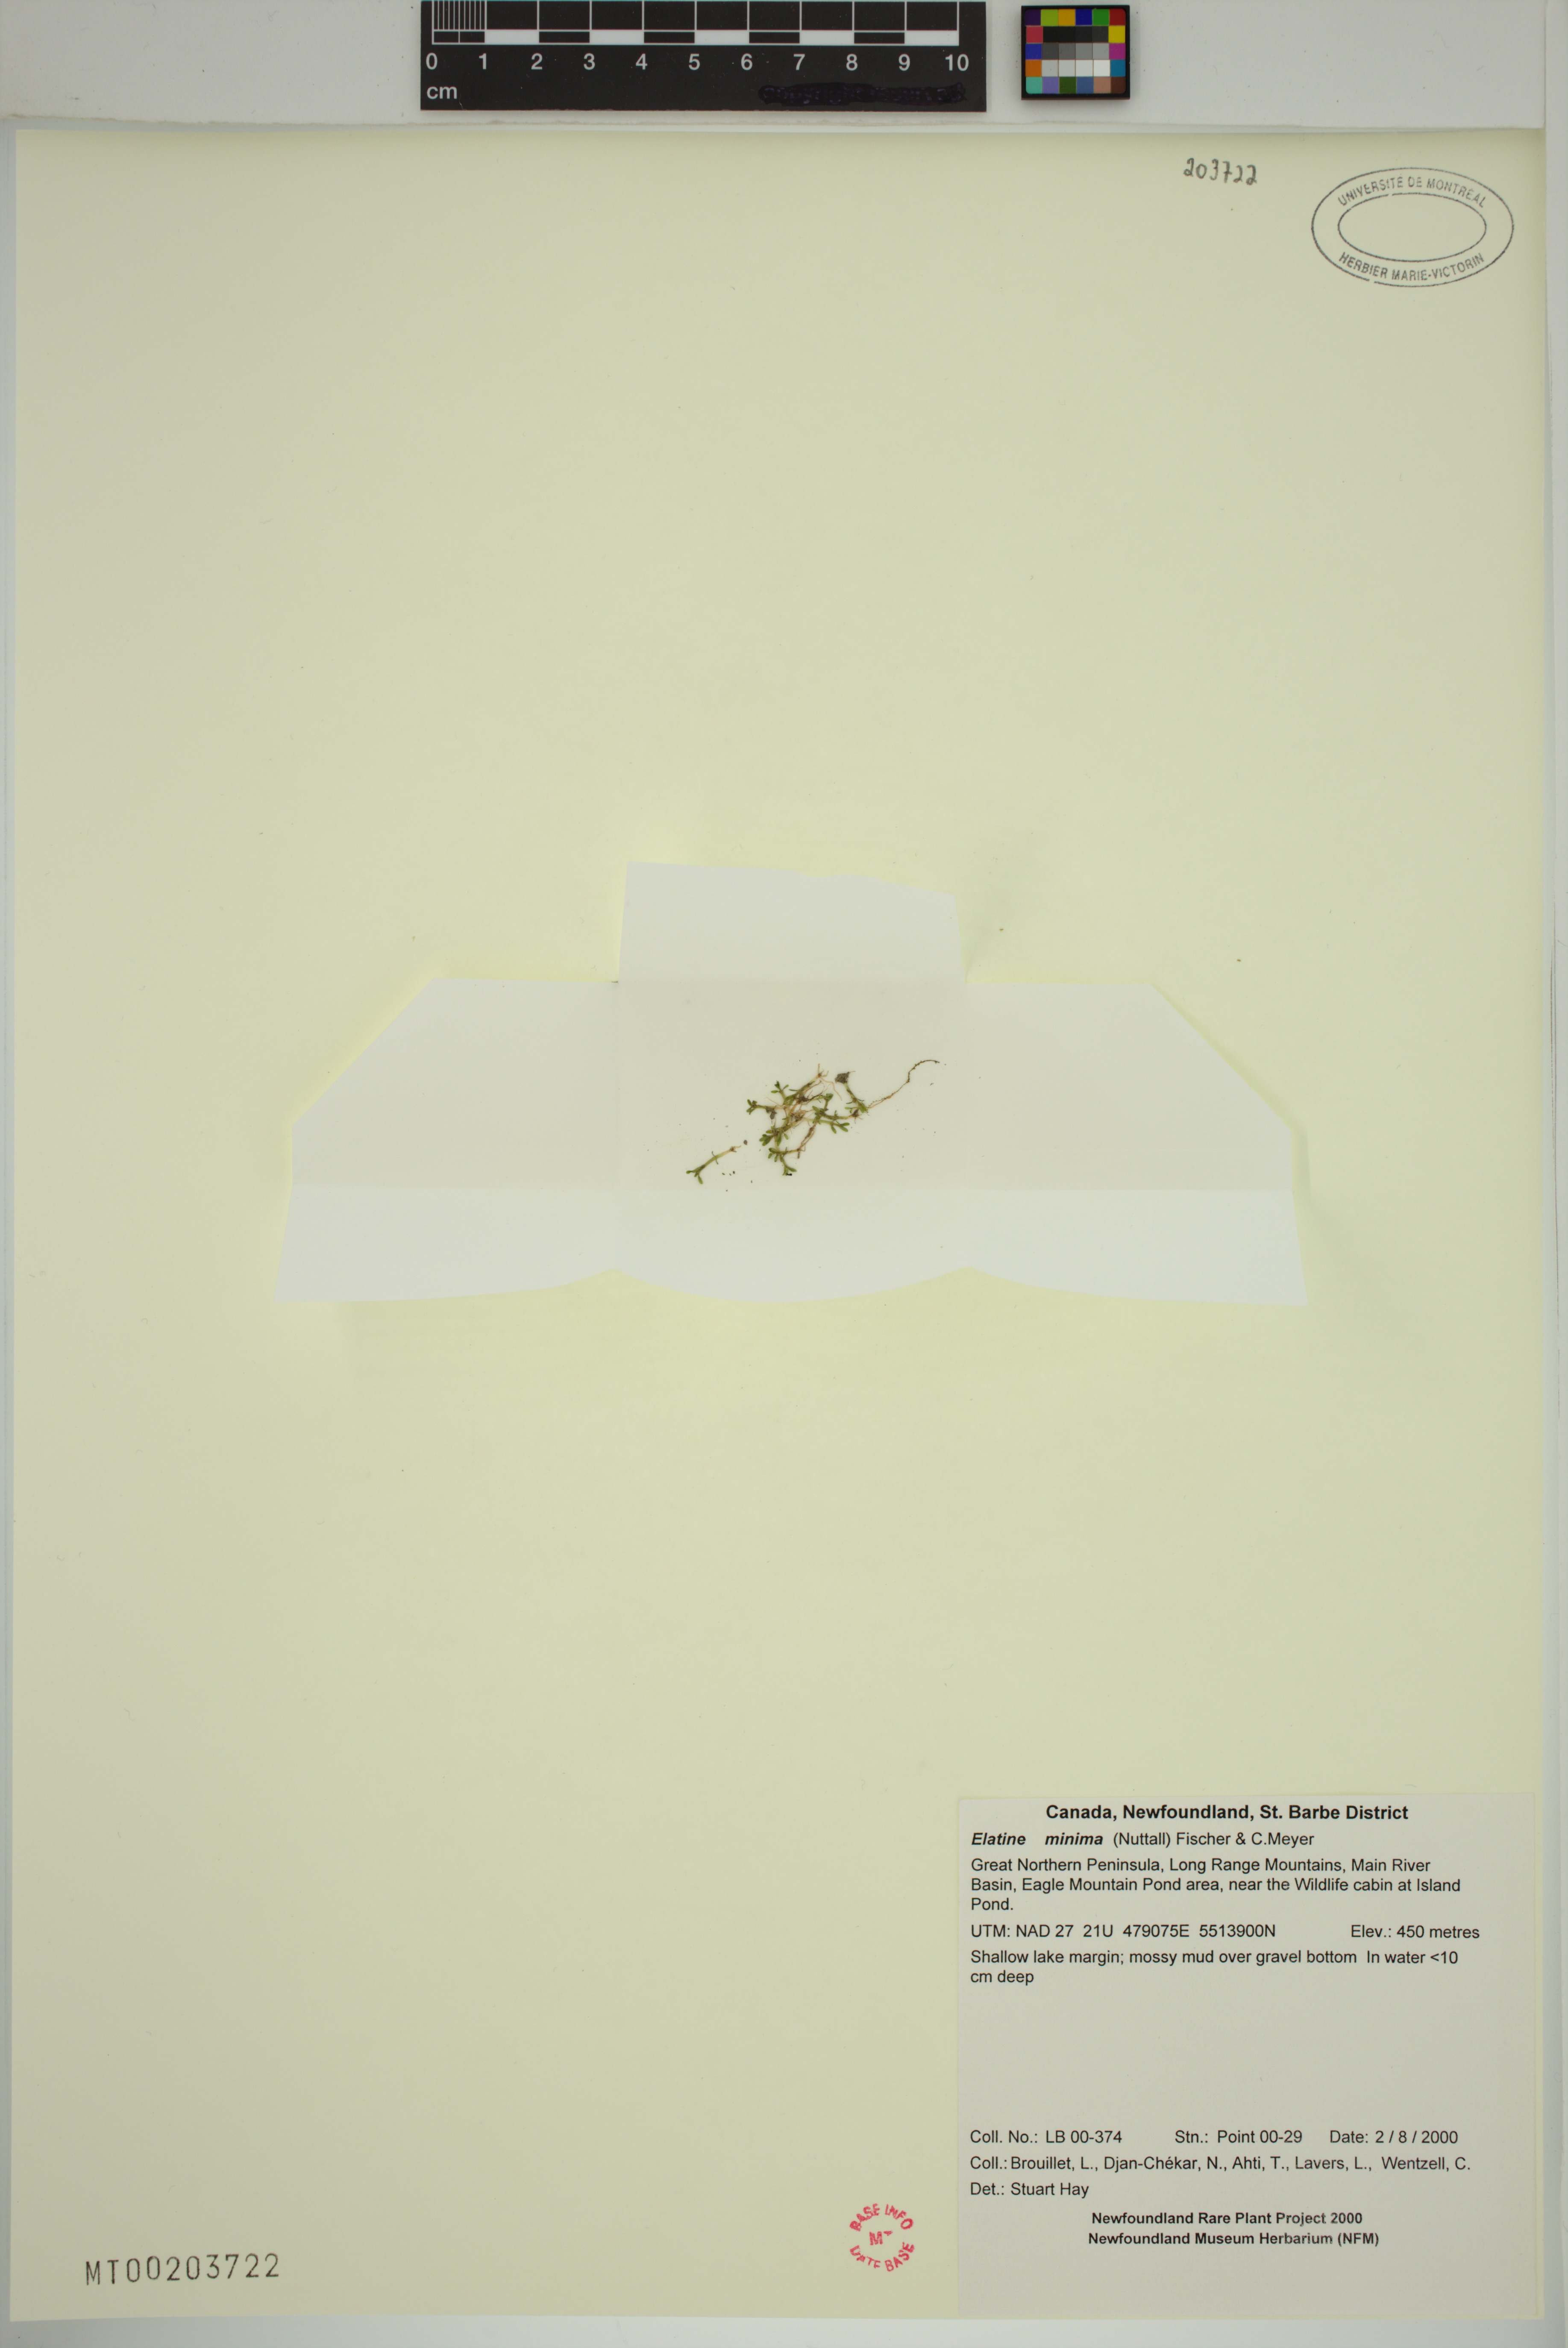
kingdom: Plantae
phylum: Tracheophyta
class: Magnoliopsida
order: Malpighiales
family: Elatinaceae
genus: Elatine
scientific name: Elatine minima
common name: Small waterwort
